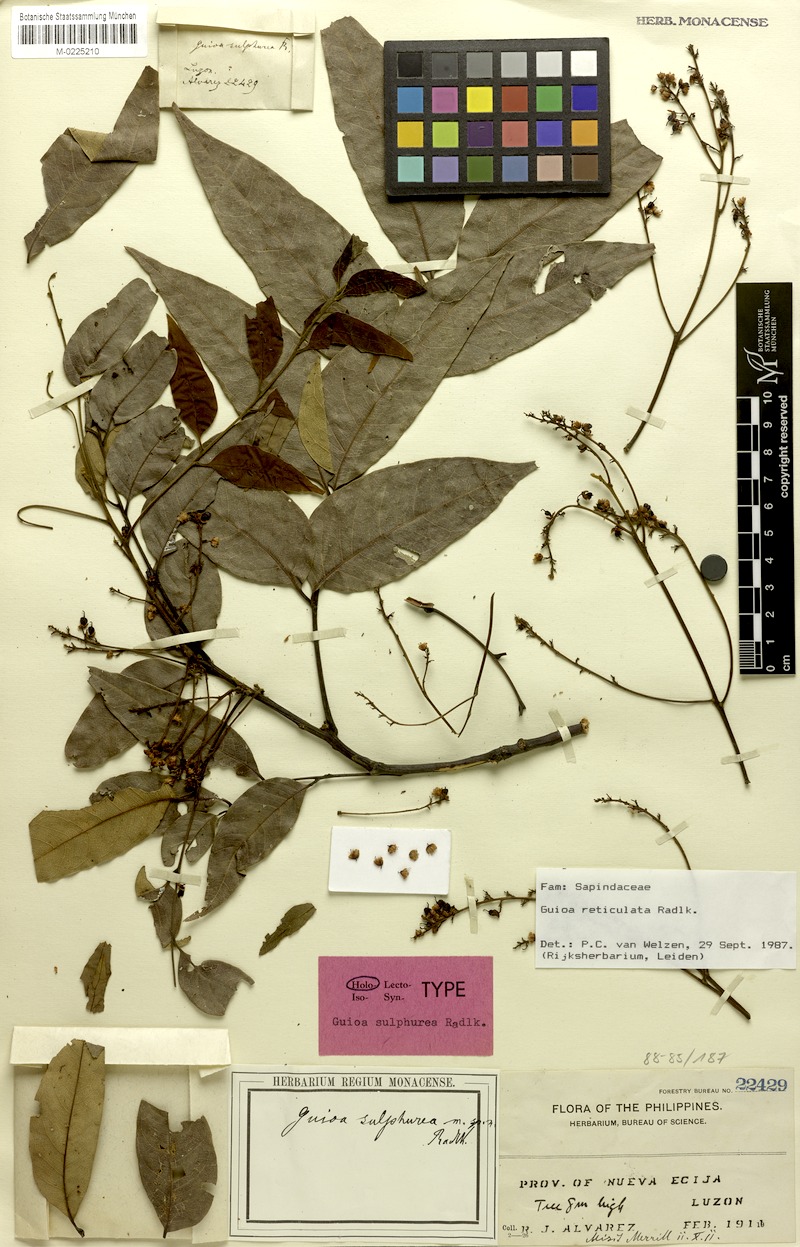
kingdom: Plantae
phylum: Tracheophyta
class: Magnoliopsida
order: Sapindales
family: Sapindaceae
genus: Guioa
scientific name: Guioa reticulata
